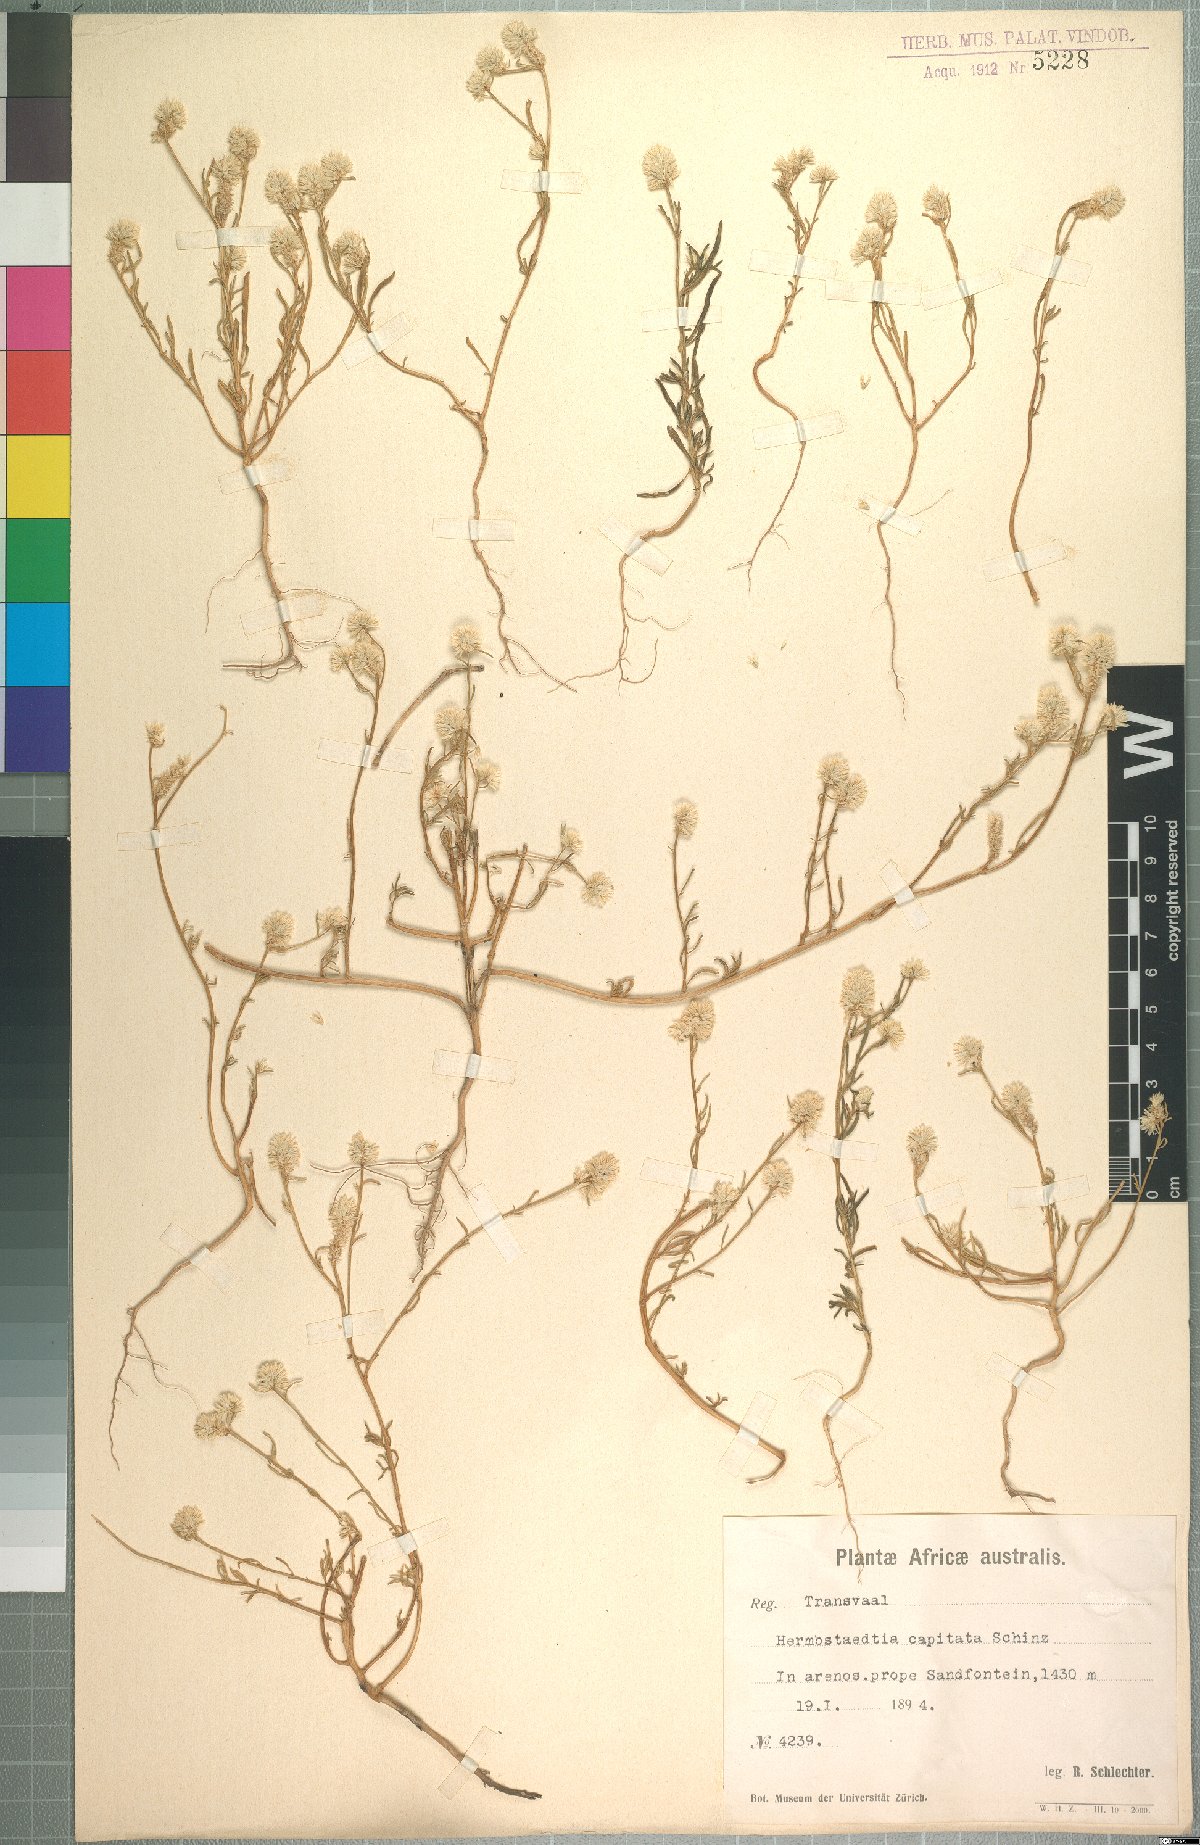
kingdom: Plantae
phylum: Tracheophyta
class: Magnoliopsida
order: Caryophyllales
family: Amaranthaceae
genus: Hermbstaedtia
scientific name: Hermbstaedtia capitata
